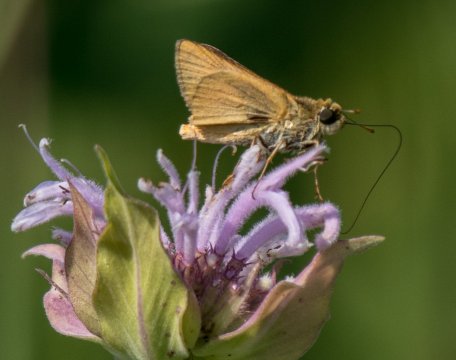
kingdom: Animalia
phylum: Arthropoda
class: Insecta
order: Lepidoptera
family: Hesperiidae
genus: Atrytone
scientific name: Atrytone delaware
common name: Delaware Skipper
